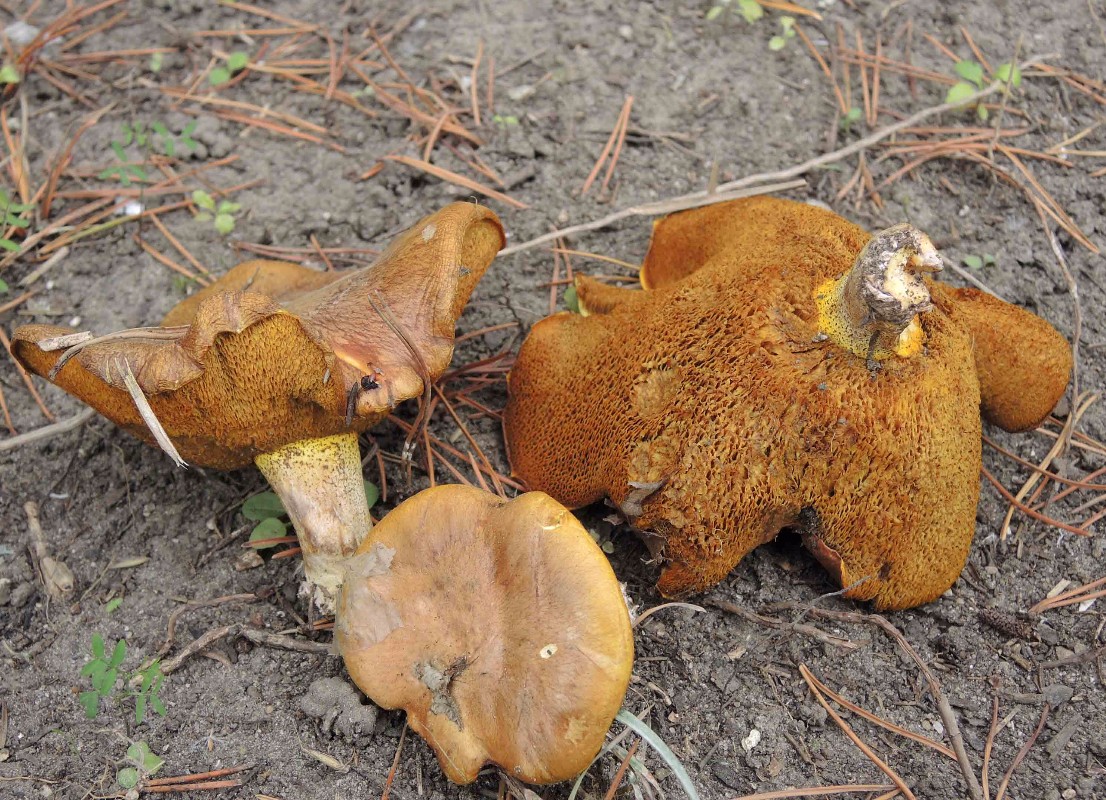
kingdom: Fungi
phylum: Basidiomycota
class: Agaricomycetes
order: Boletales
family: Suillaceae
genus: Suillus
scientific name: Suillus collinitus
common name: rosafodet slimrørhat
